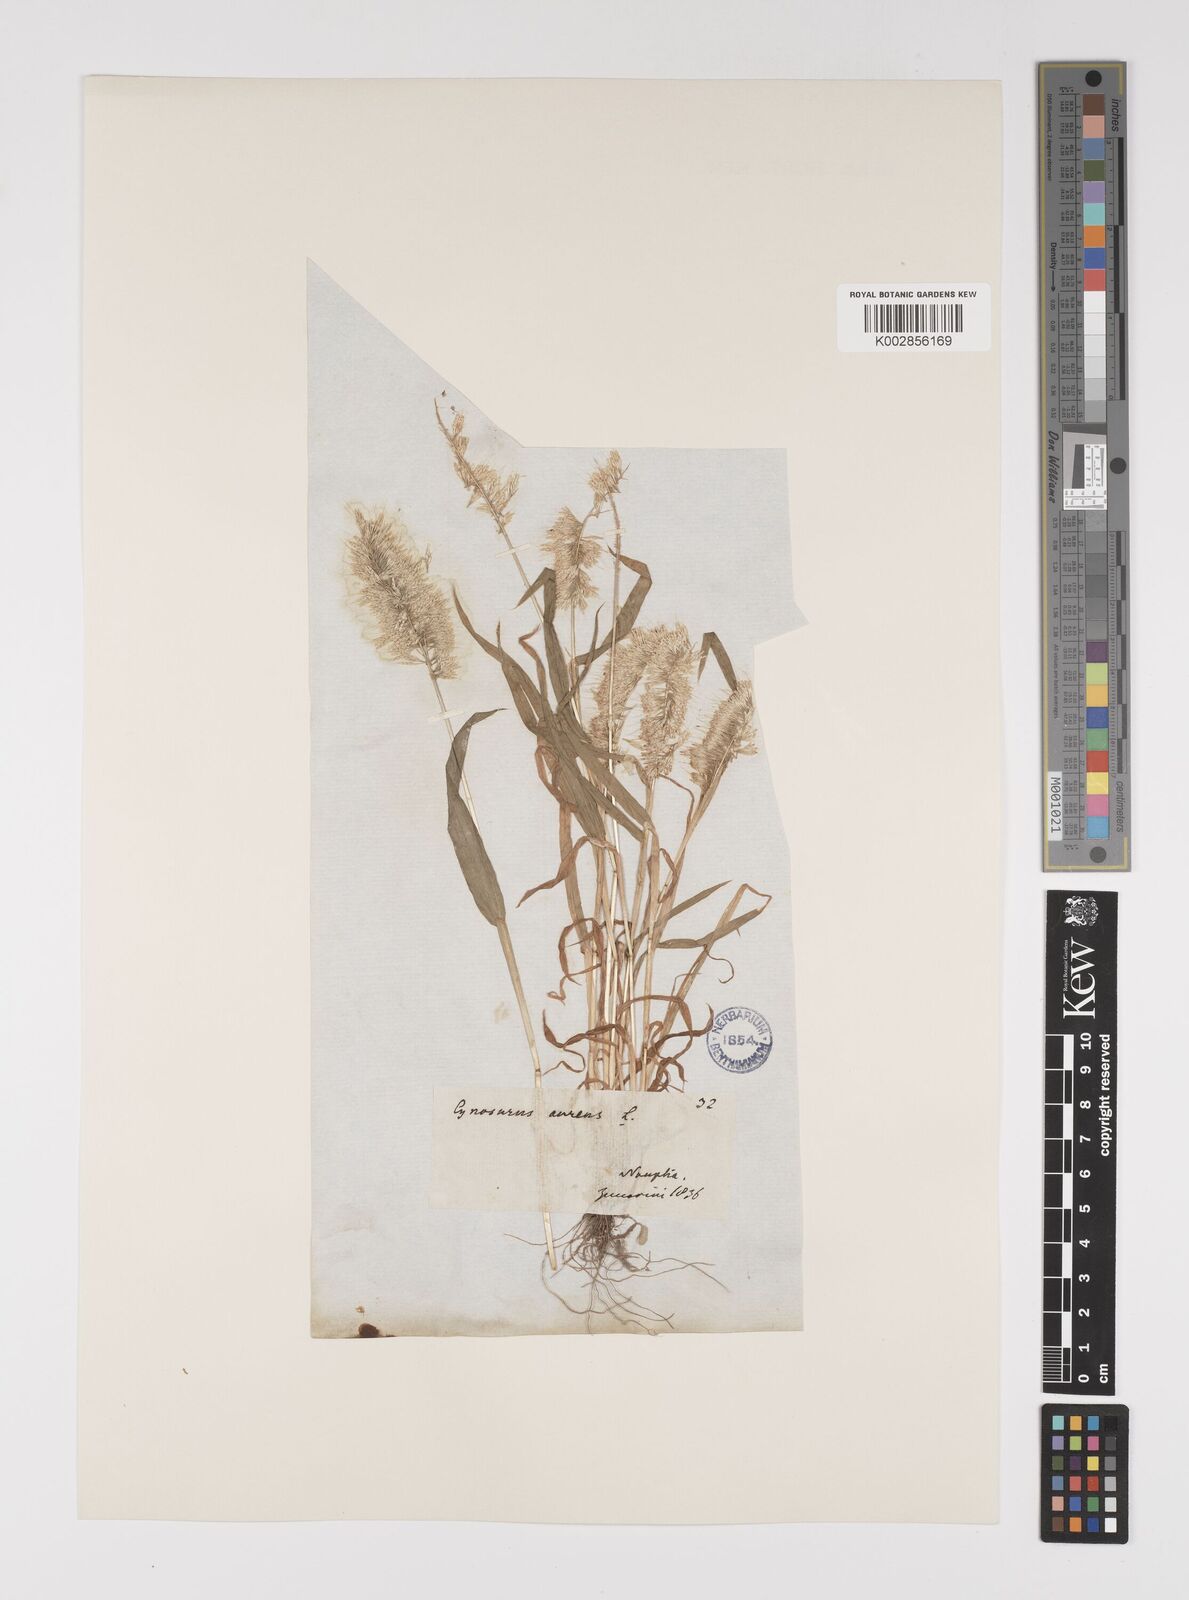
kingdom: Plantae
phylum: Tracheophyta
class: Liliopsida
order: Poales
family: Poaceae
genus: Lamarckia
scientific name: Lamarckia aurea
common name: Golden dog's-tail
